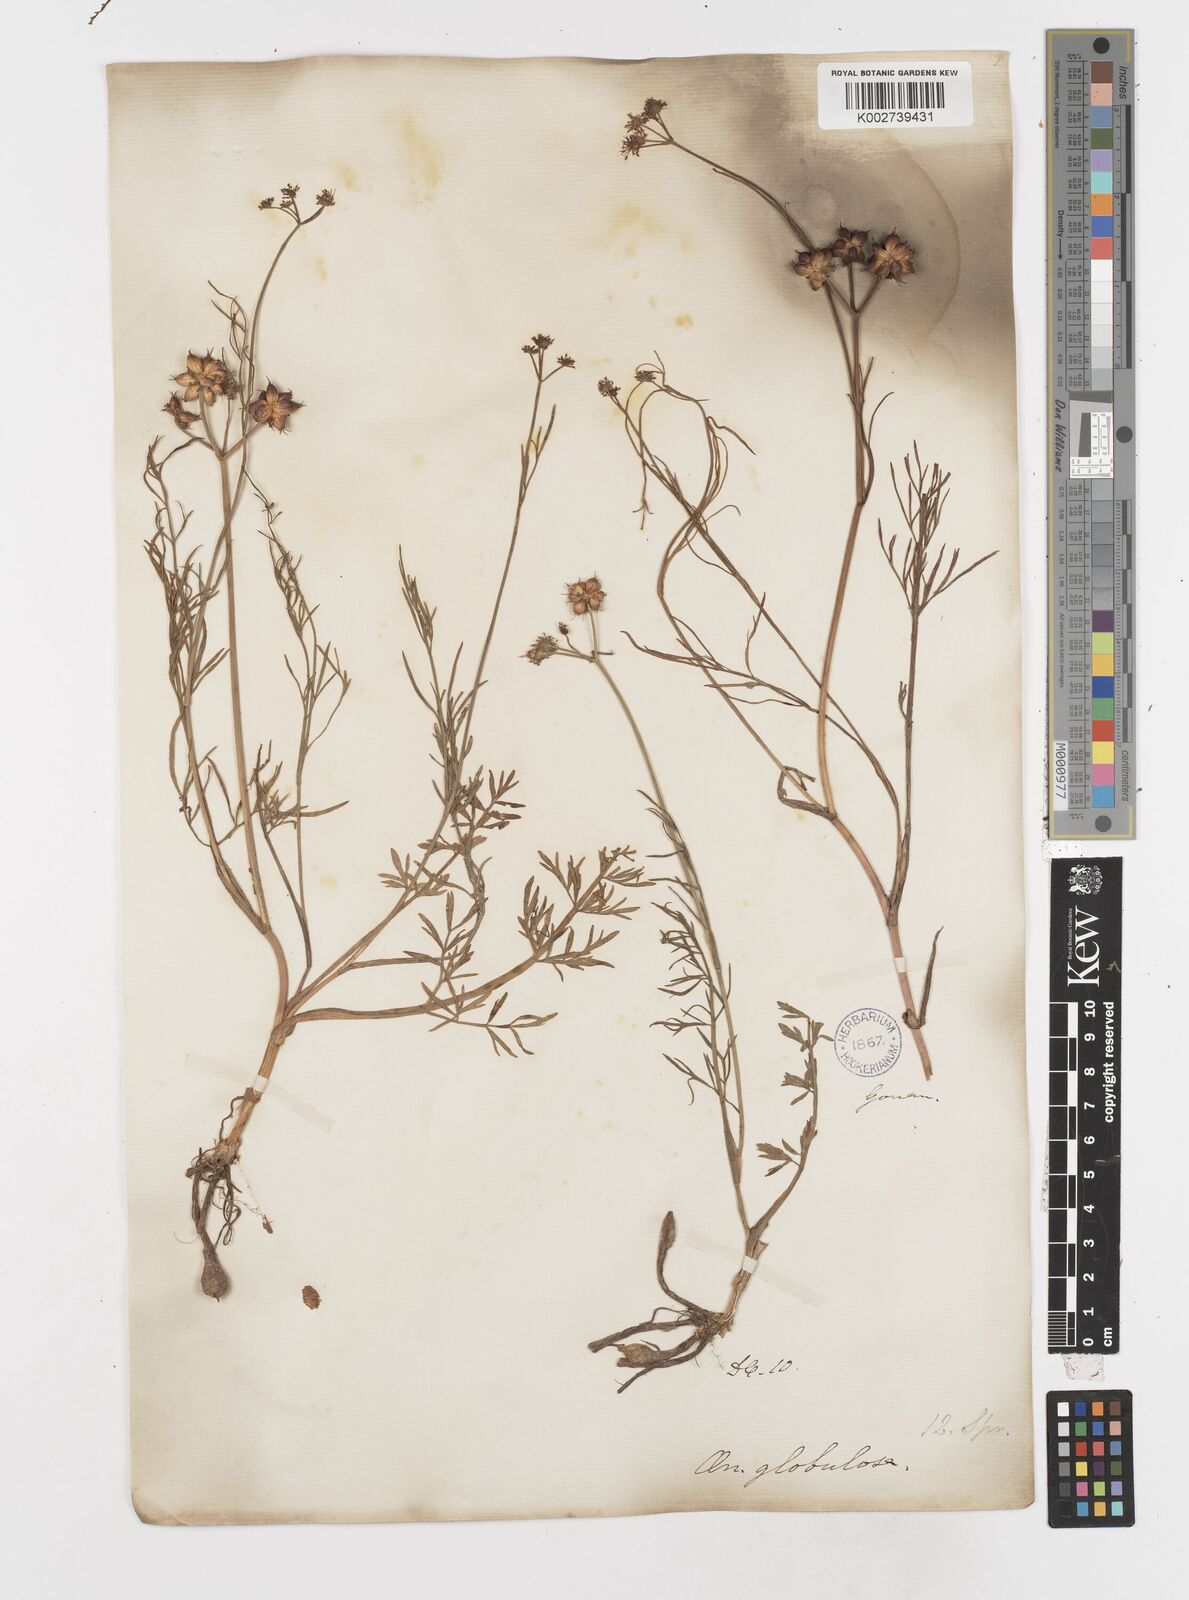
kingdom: Plantae
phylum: Tracheophyta
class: Magnoliopsida
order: Apiales
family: Apiaceae
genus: Oenanthe
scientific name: Oenanthe globulosa
